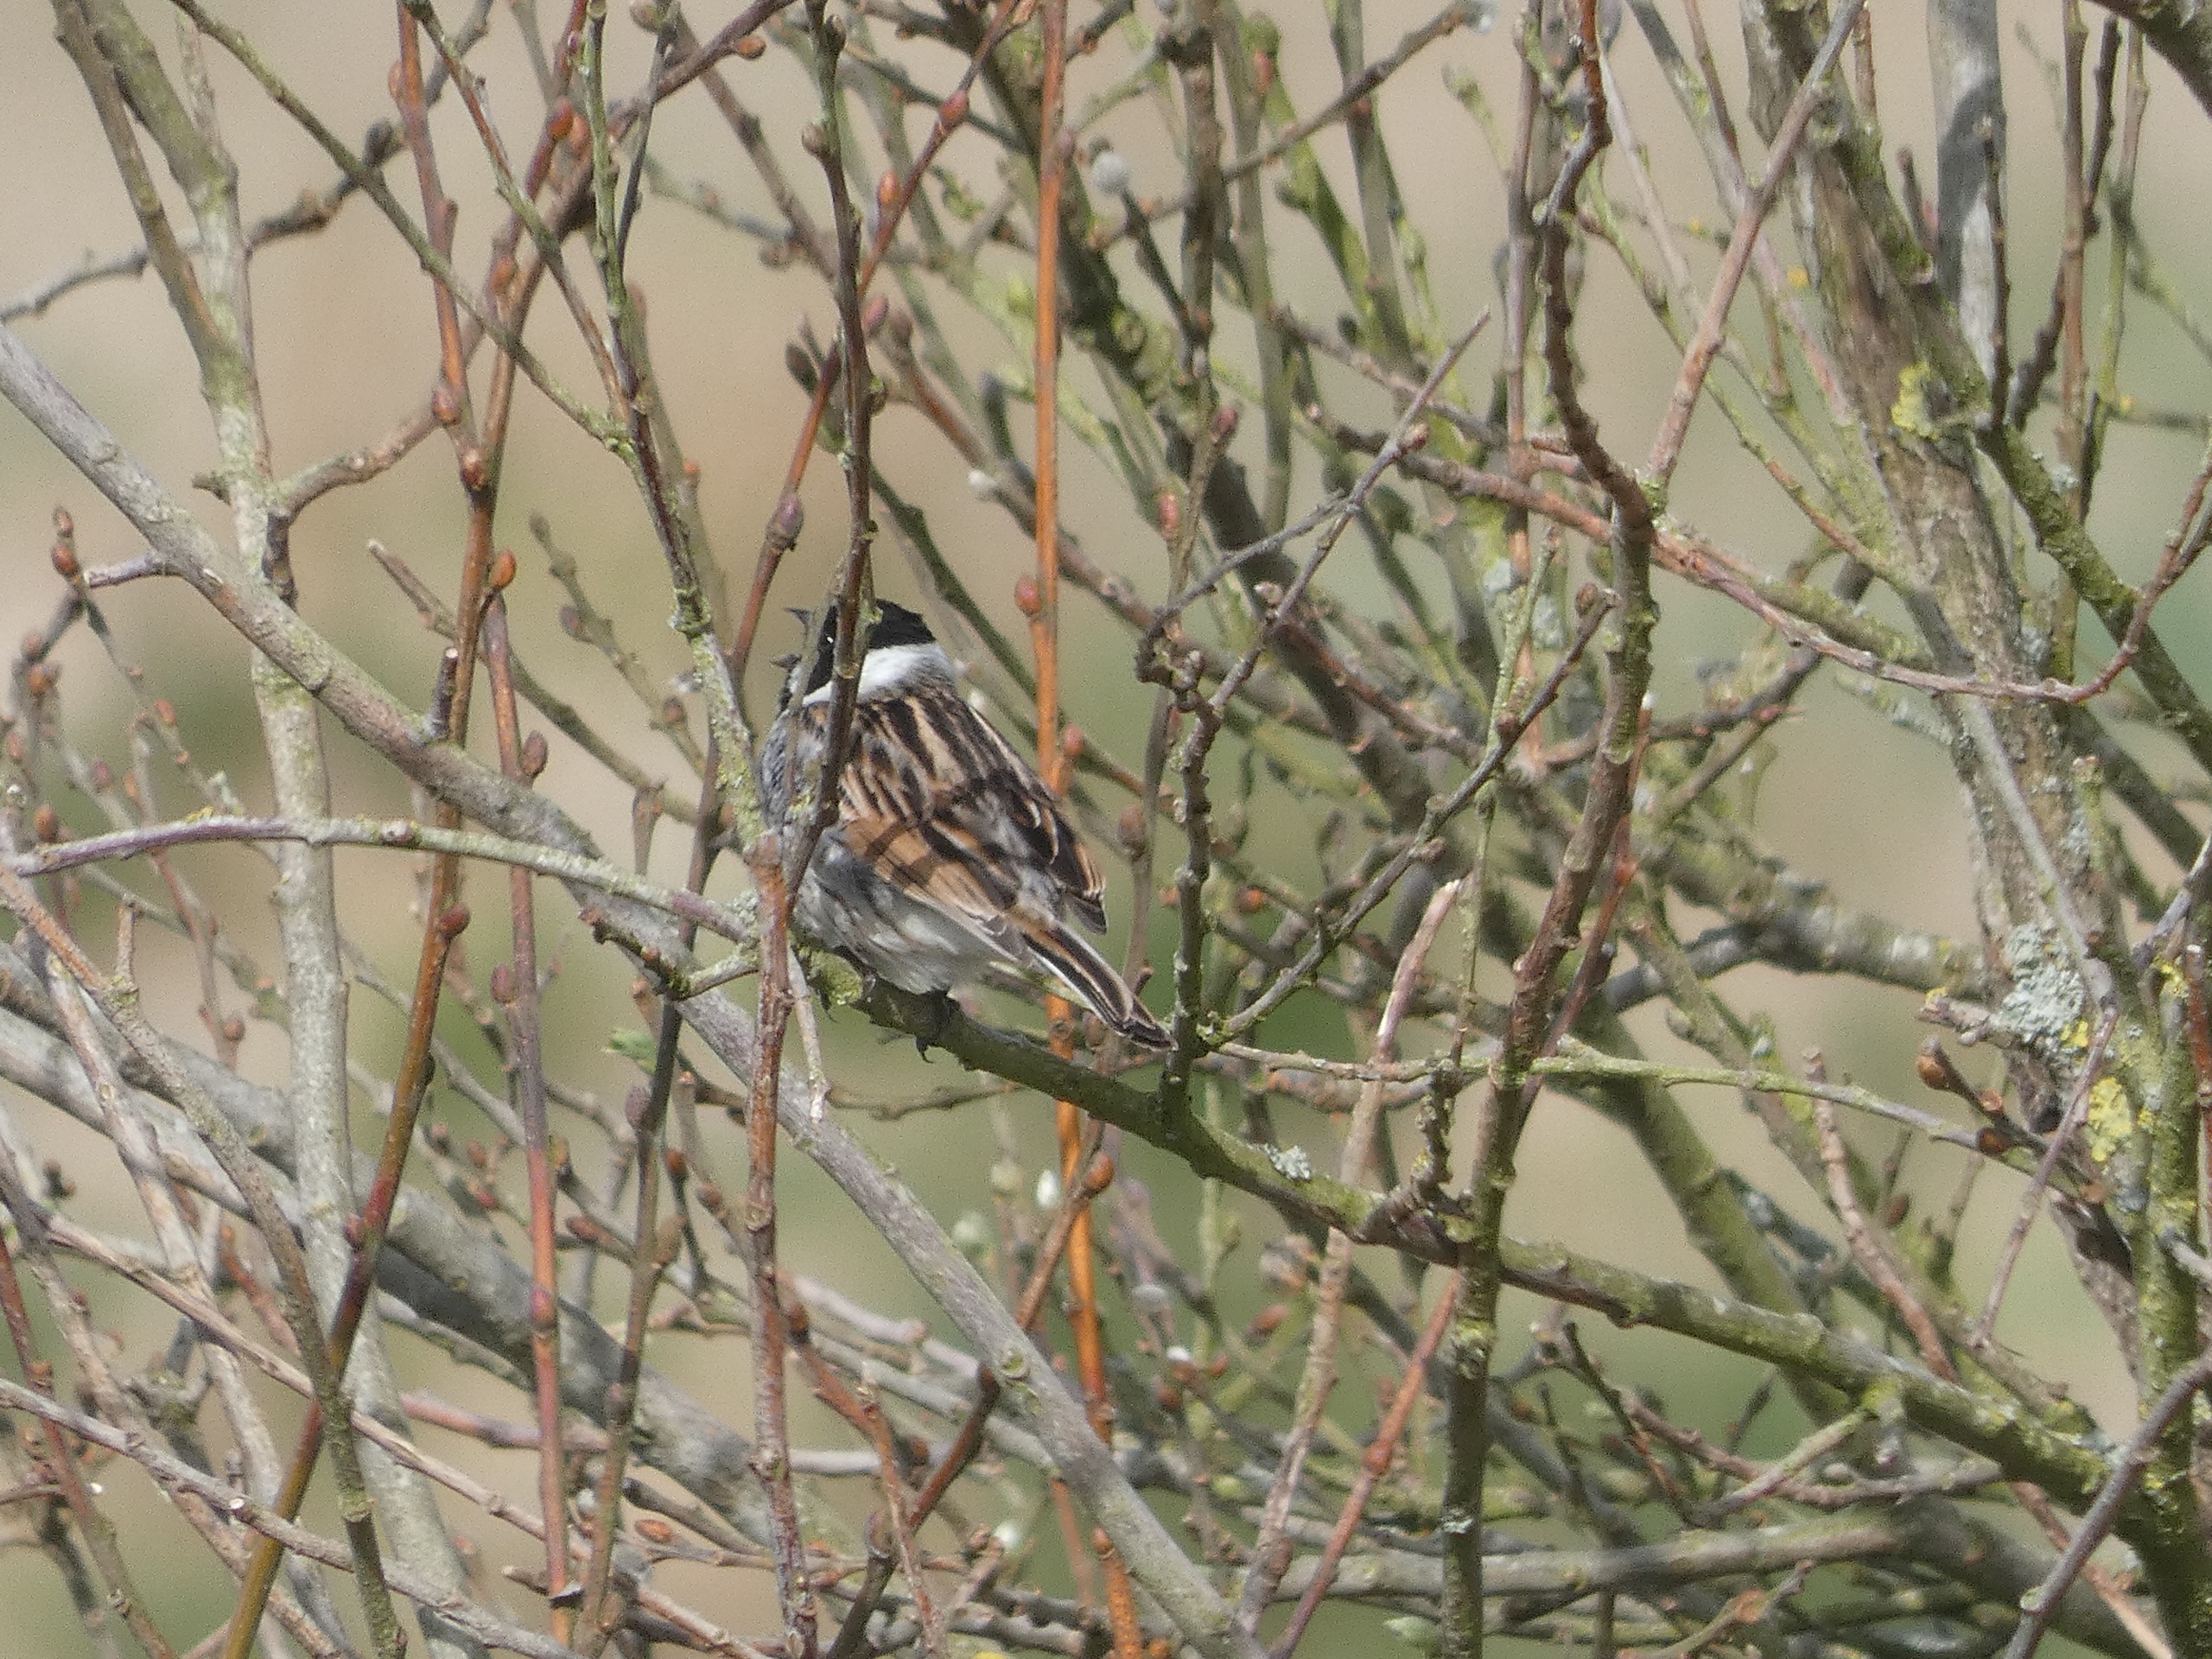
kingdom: Animalia
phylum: Chordata
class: Aves
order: Passeriformes
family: Emberizidae
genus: Emberiza
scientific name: Emberiza schoeniclus
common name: Rørspurv
